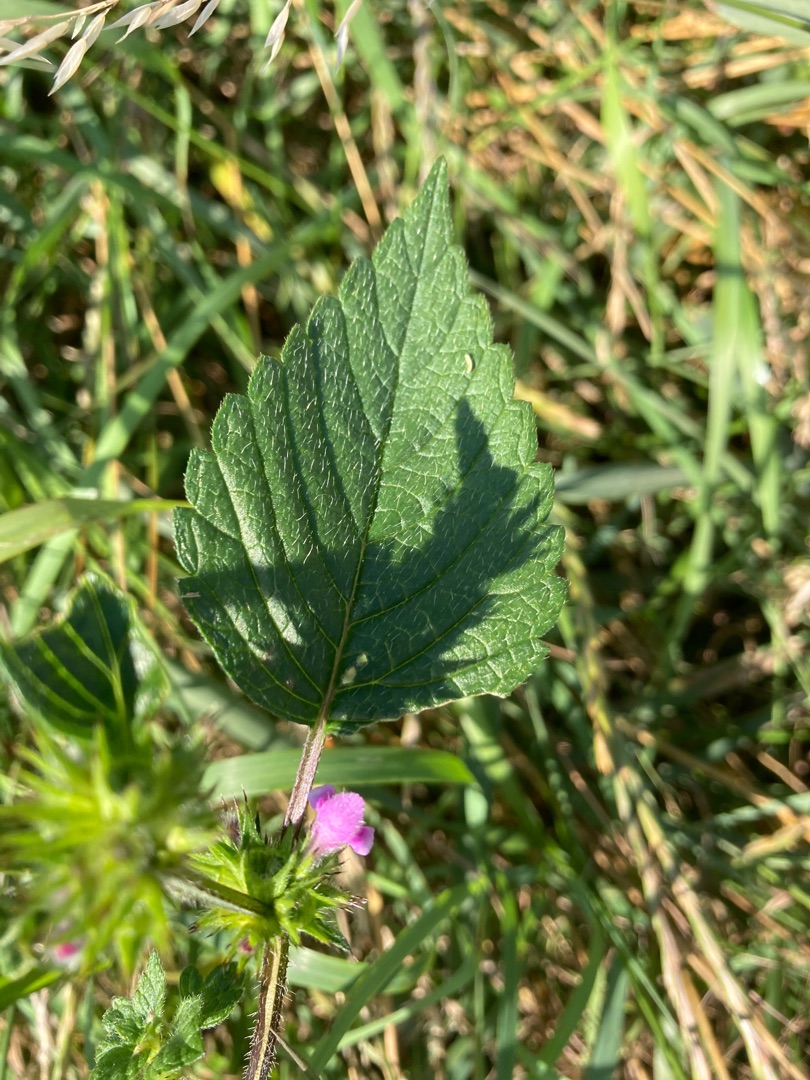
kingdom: Plantae
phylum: Tracheophyta
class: Magnoliopsida
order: Lamiales
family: Lamiaceae
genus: Galeopsis
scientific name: Galeopsis tetrahit
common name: Almindelig hanekro
